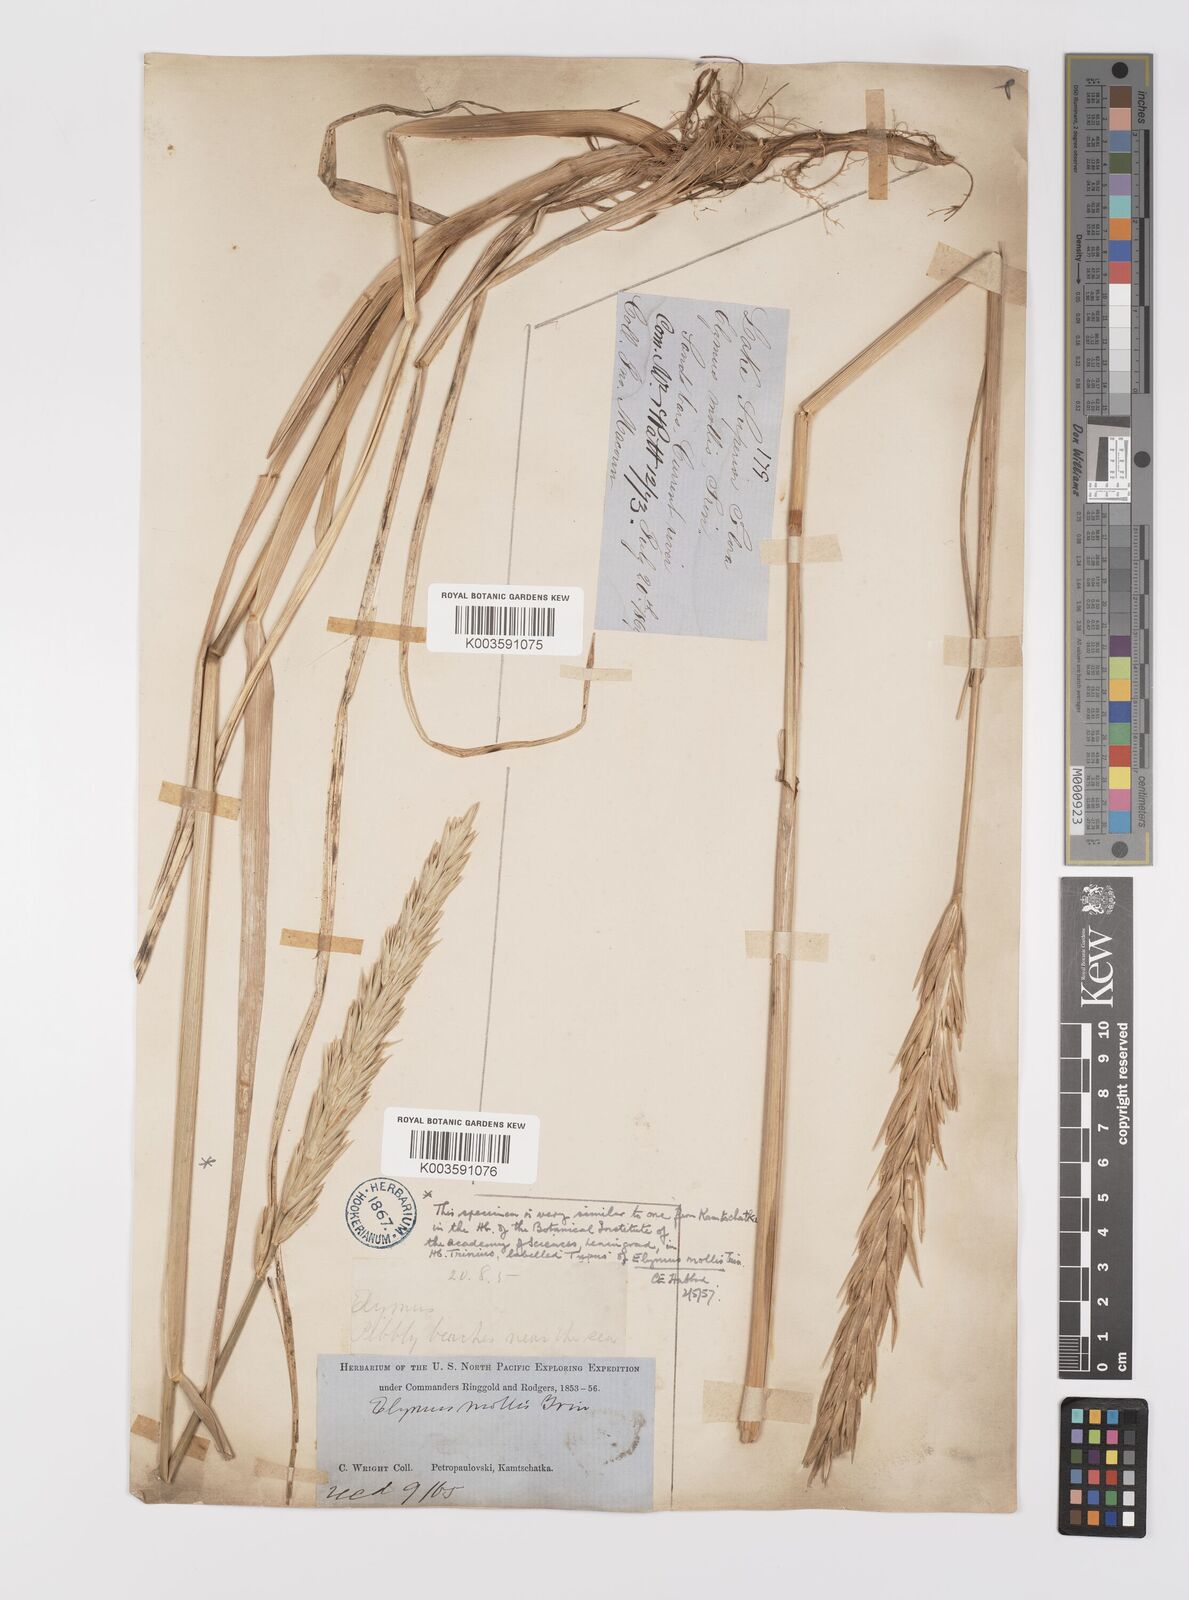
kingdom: Plantae
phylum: Tracheophyta
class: Liliopsida
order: Poales
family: Poaceae
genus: Leymus
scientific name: Leymus mollis
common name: American dune grass
